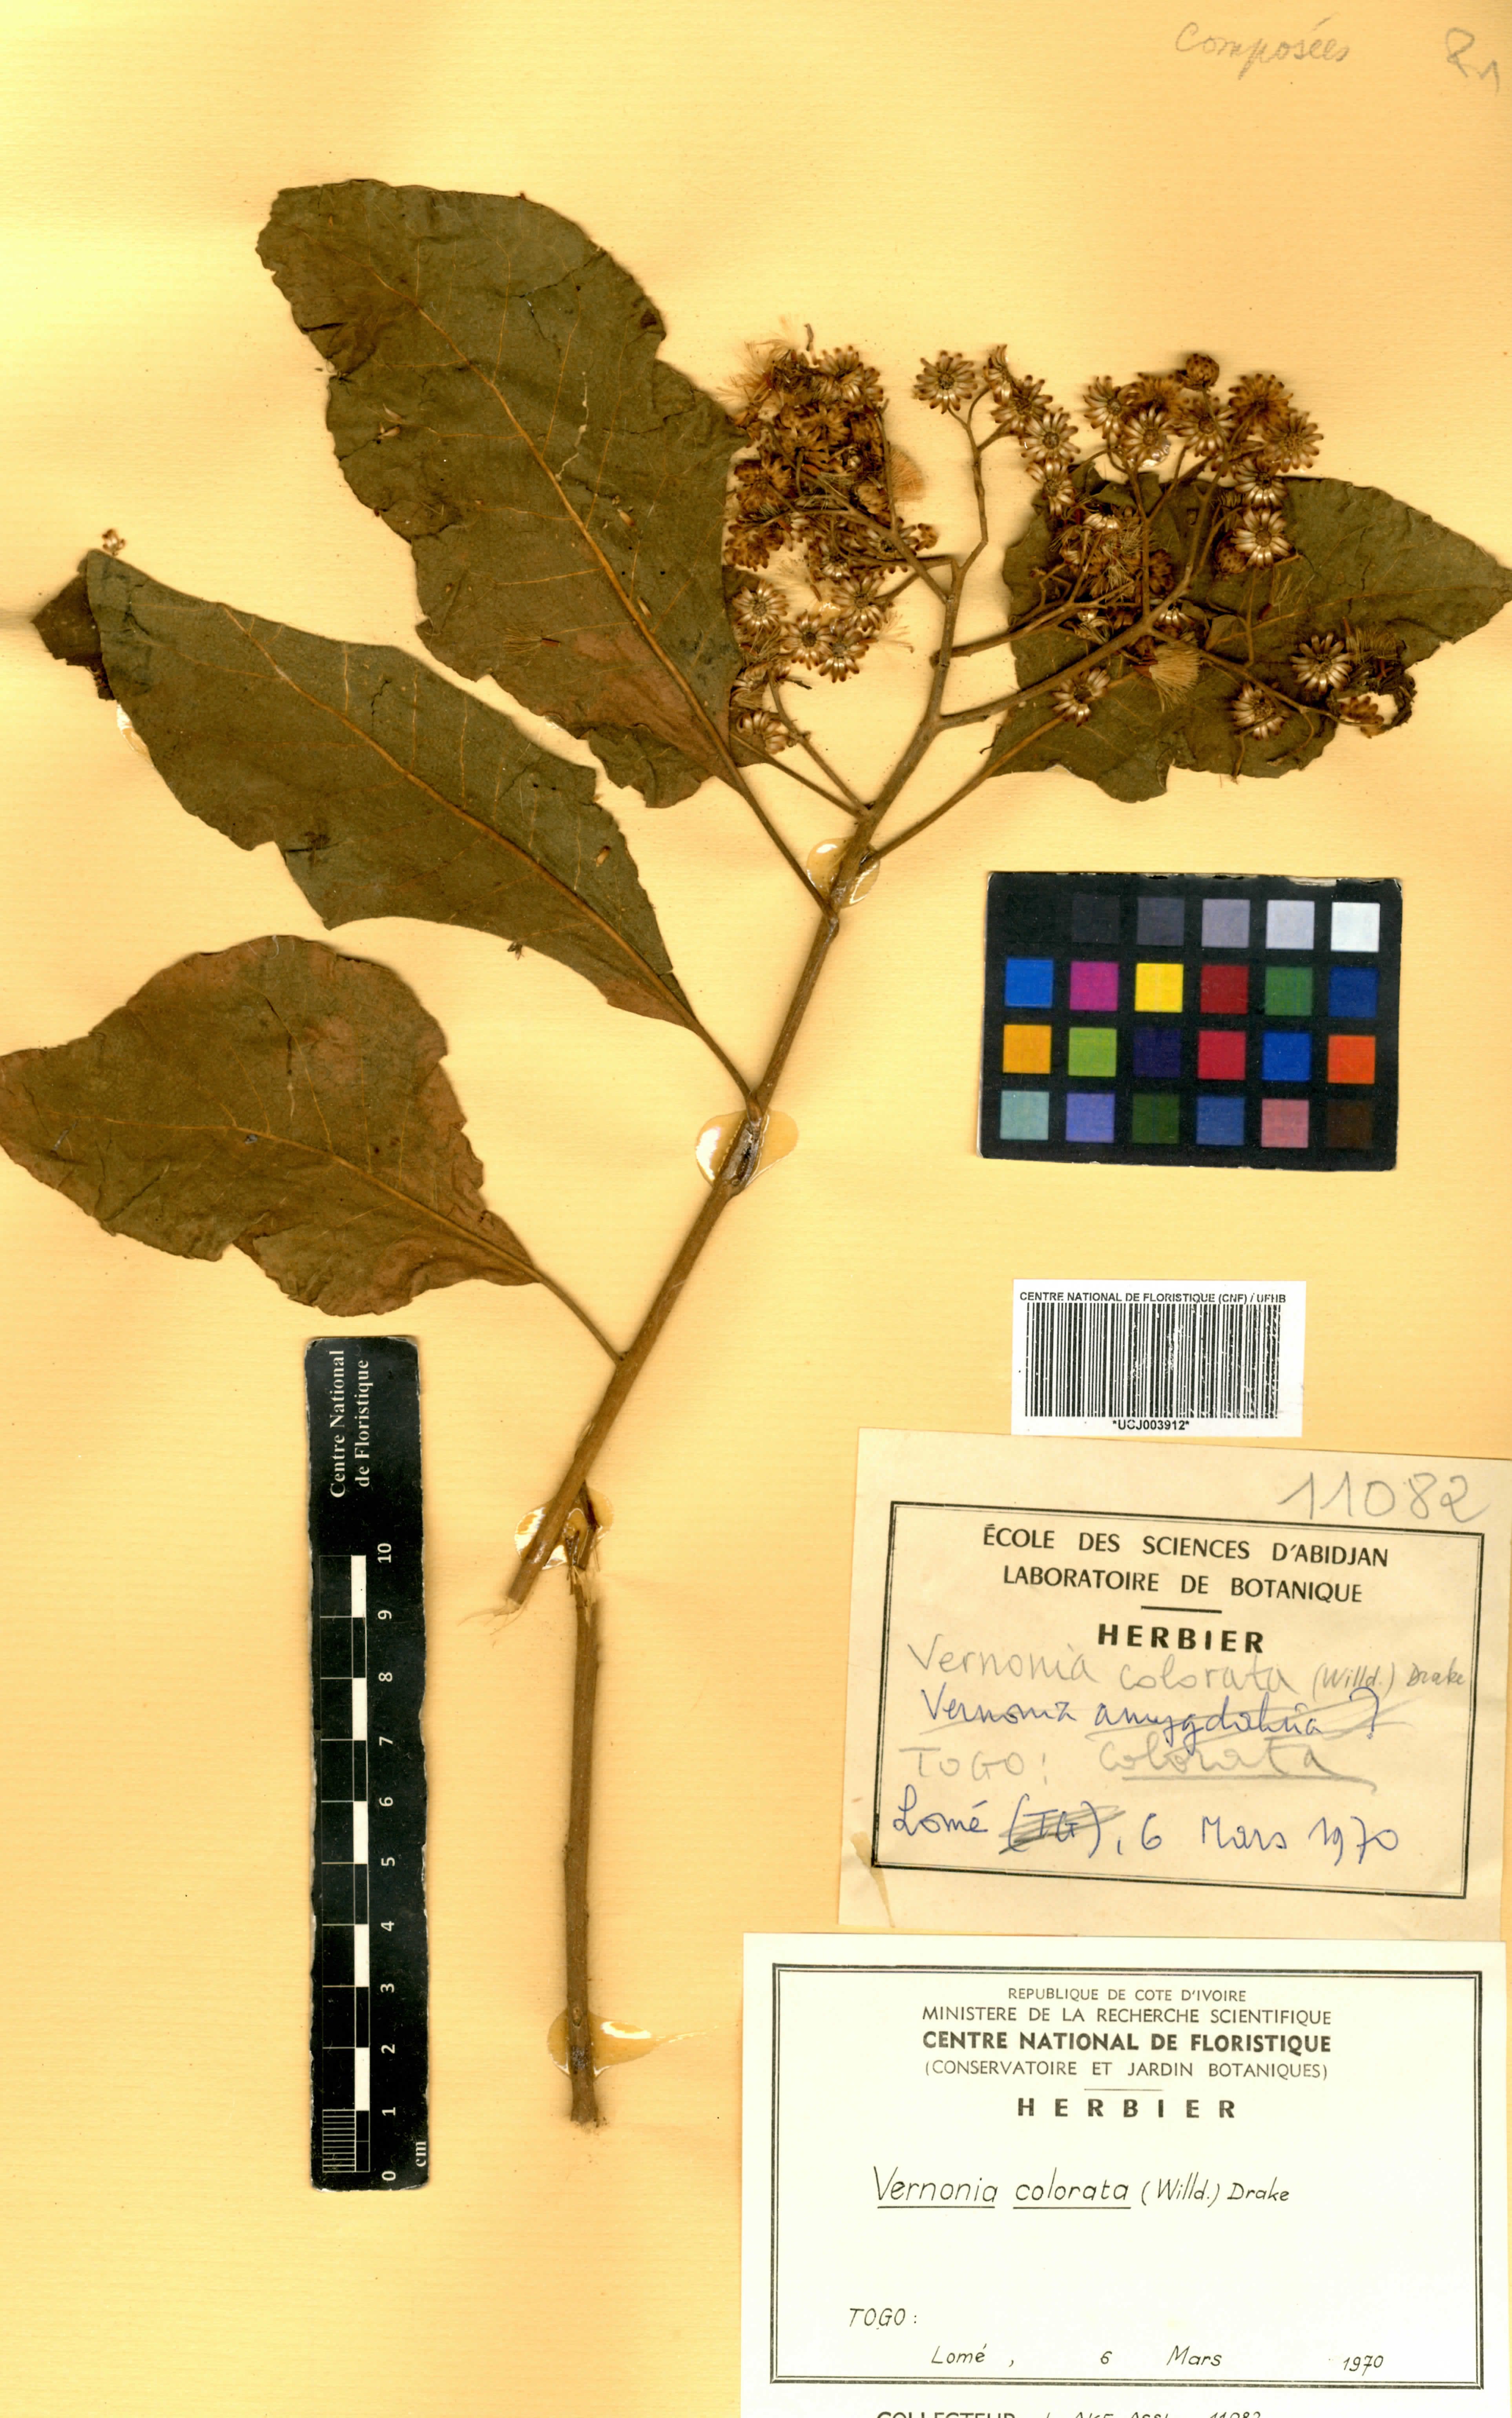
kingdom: Plantae
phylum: Tracheophyta
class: Magnoliopsida
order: Asterales
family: Asteraceae
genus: Vernonia
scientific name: Vernonia colorata
